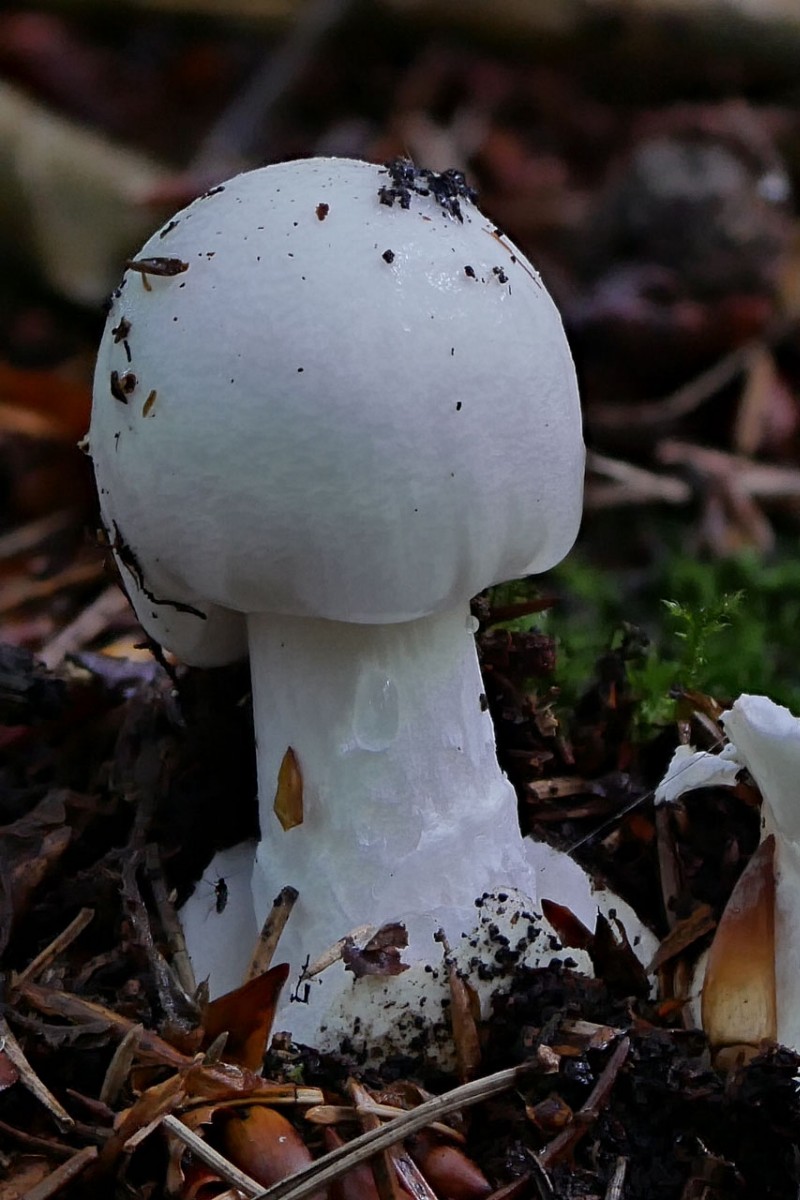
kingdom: Fungi
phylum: Basidiomycota
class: Agaricomycetes
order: Agaricales
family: Amanitaceae
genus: Amanita
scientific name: Amanita virosa
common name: snehvid fluesvamp
